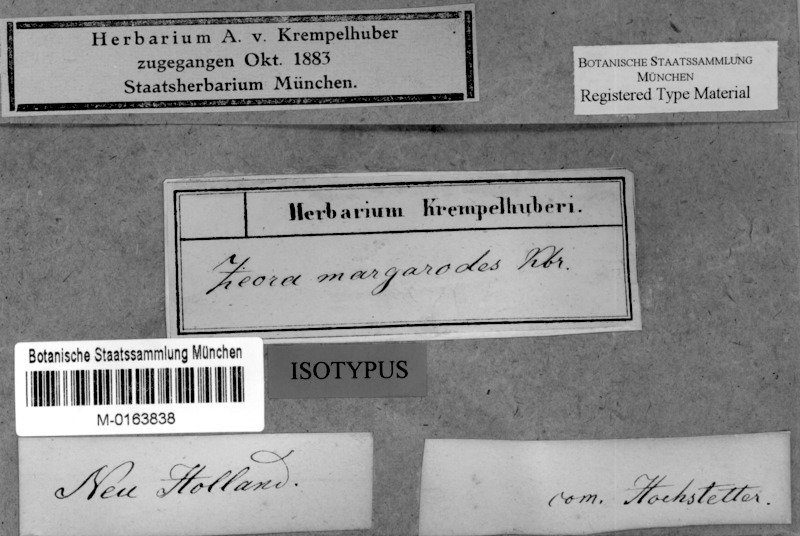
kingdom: Fungi
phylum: Ascomycota
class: Lecanoromycetes
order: Lecanorales
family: Lecanoraceae
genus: Lecanora
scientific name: Lecanora margarodes
